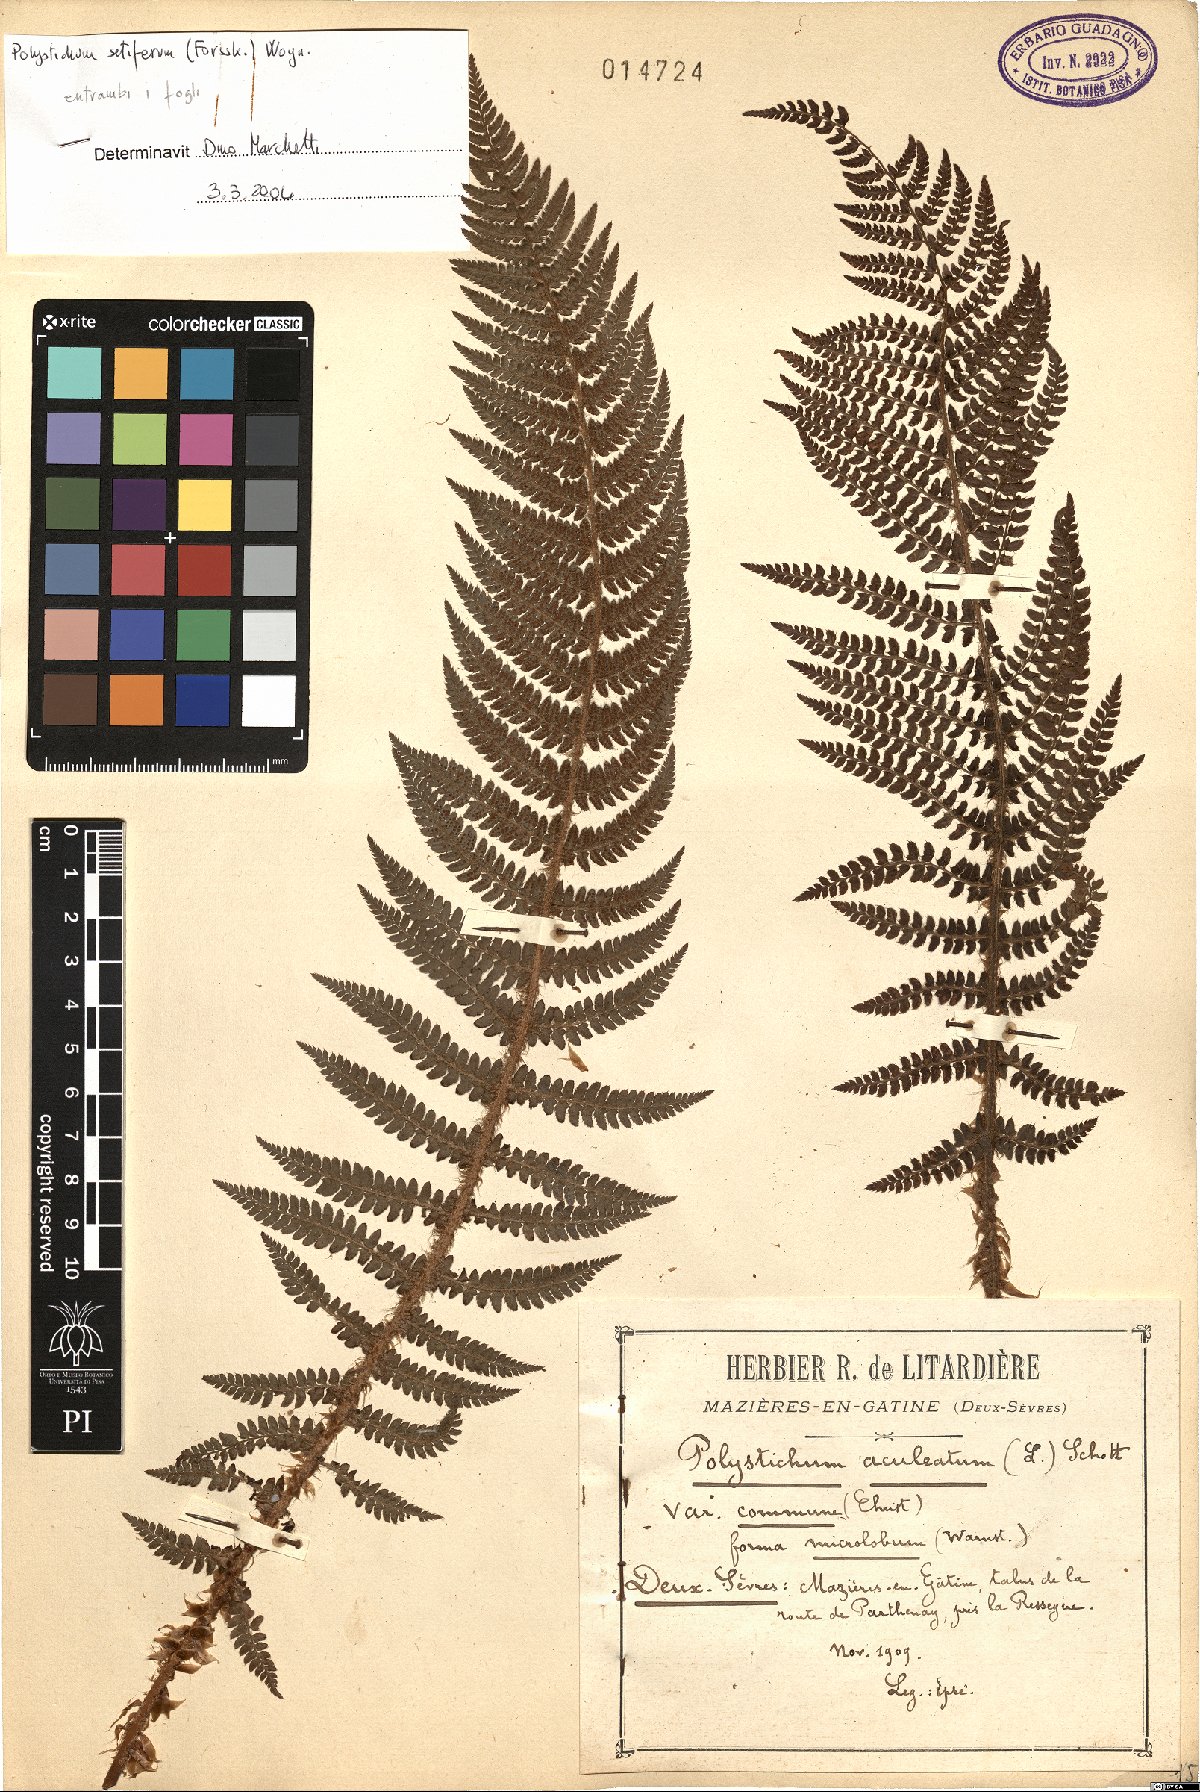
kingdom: Plantae
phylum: Tracheophyta
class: Polypodiopsida
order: Polypodiales
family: Dryopteridaceae
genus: Polystichum
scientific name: Polystichum setiferum
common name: Soft shield-fern
